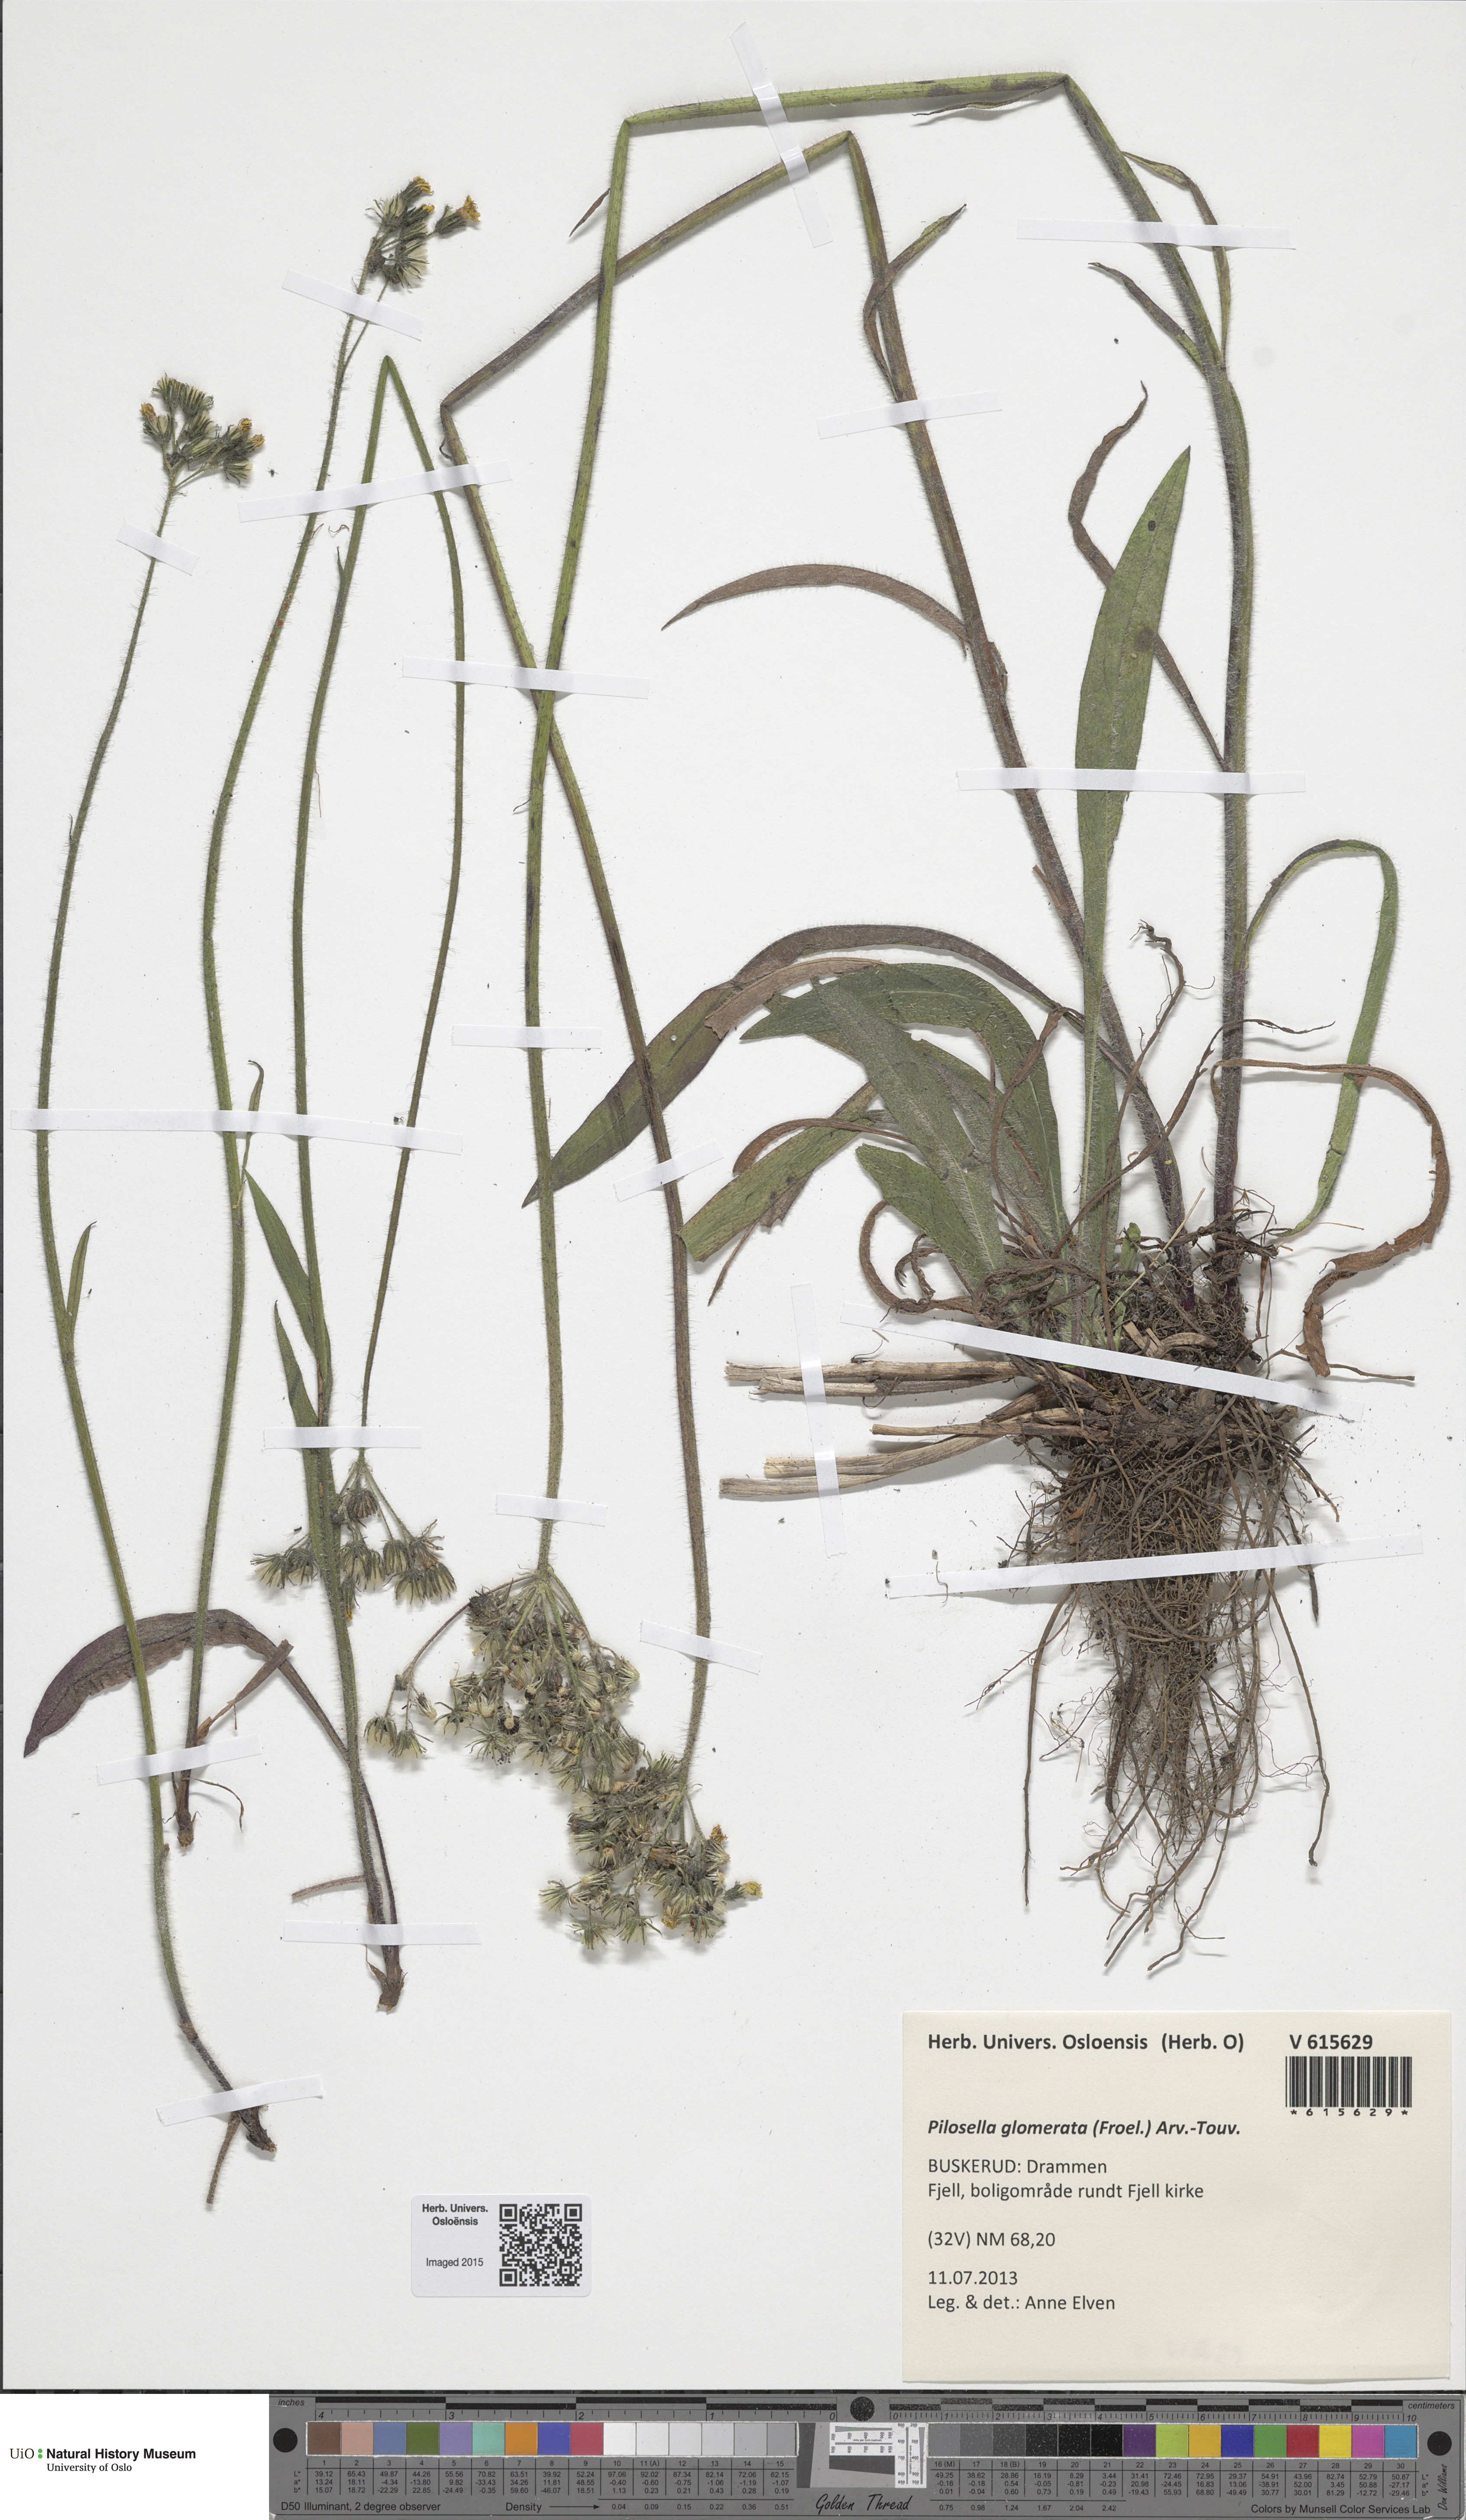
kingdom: Plantae
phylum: Tracheophyta
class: Magnoliopsida
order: Asterales
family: Asteraceae
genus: Pilosella
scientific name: Pilosella glomerata
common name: Queen devil hawkweed
